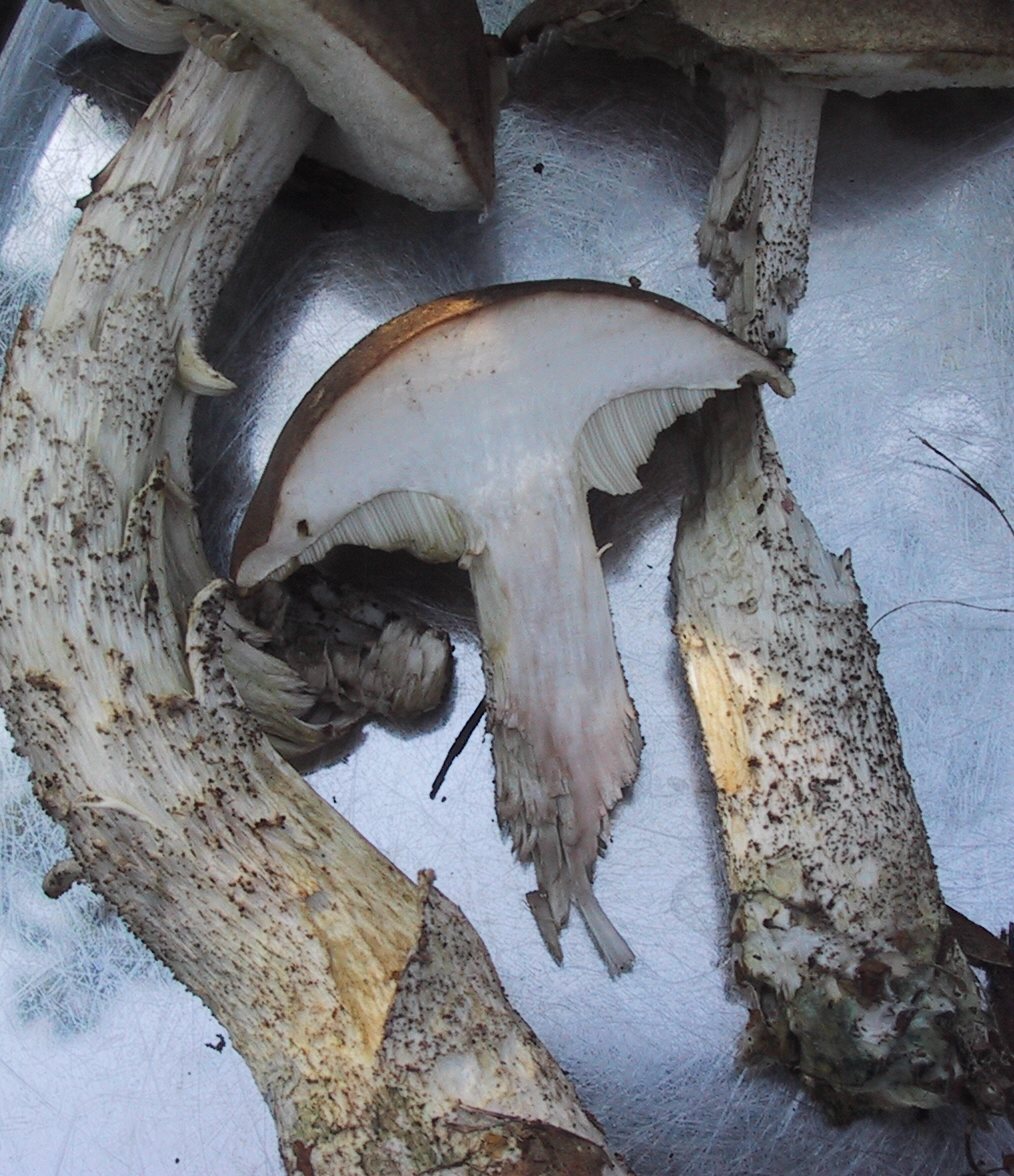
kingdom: Fungi
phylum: Basidiomycota
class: Agaricomycetes
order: Boletales
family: Boletaceae
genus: Leccinum
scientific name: Leccinum variicolor
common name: flammet skælrørhat
